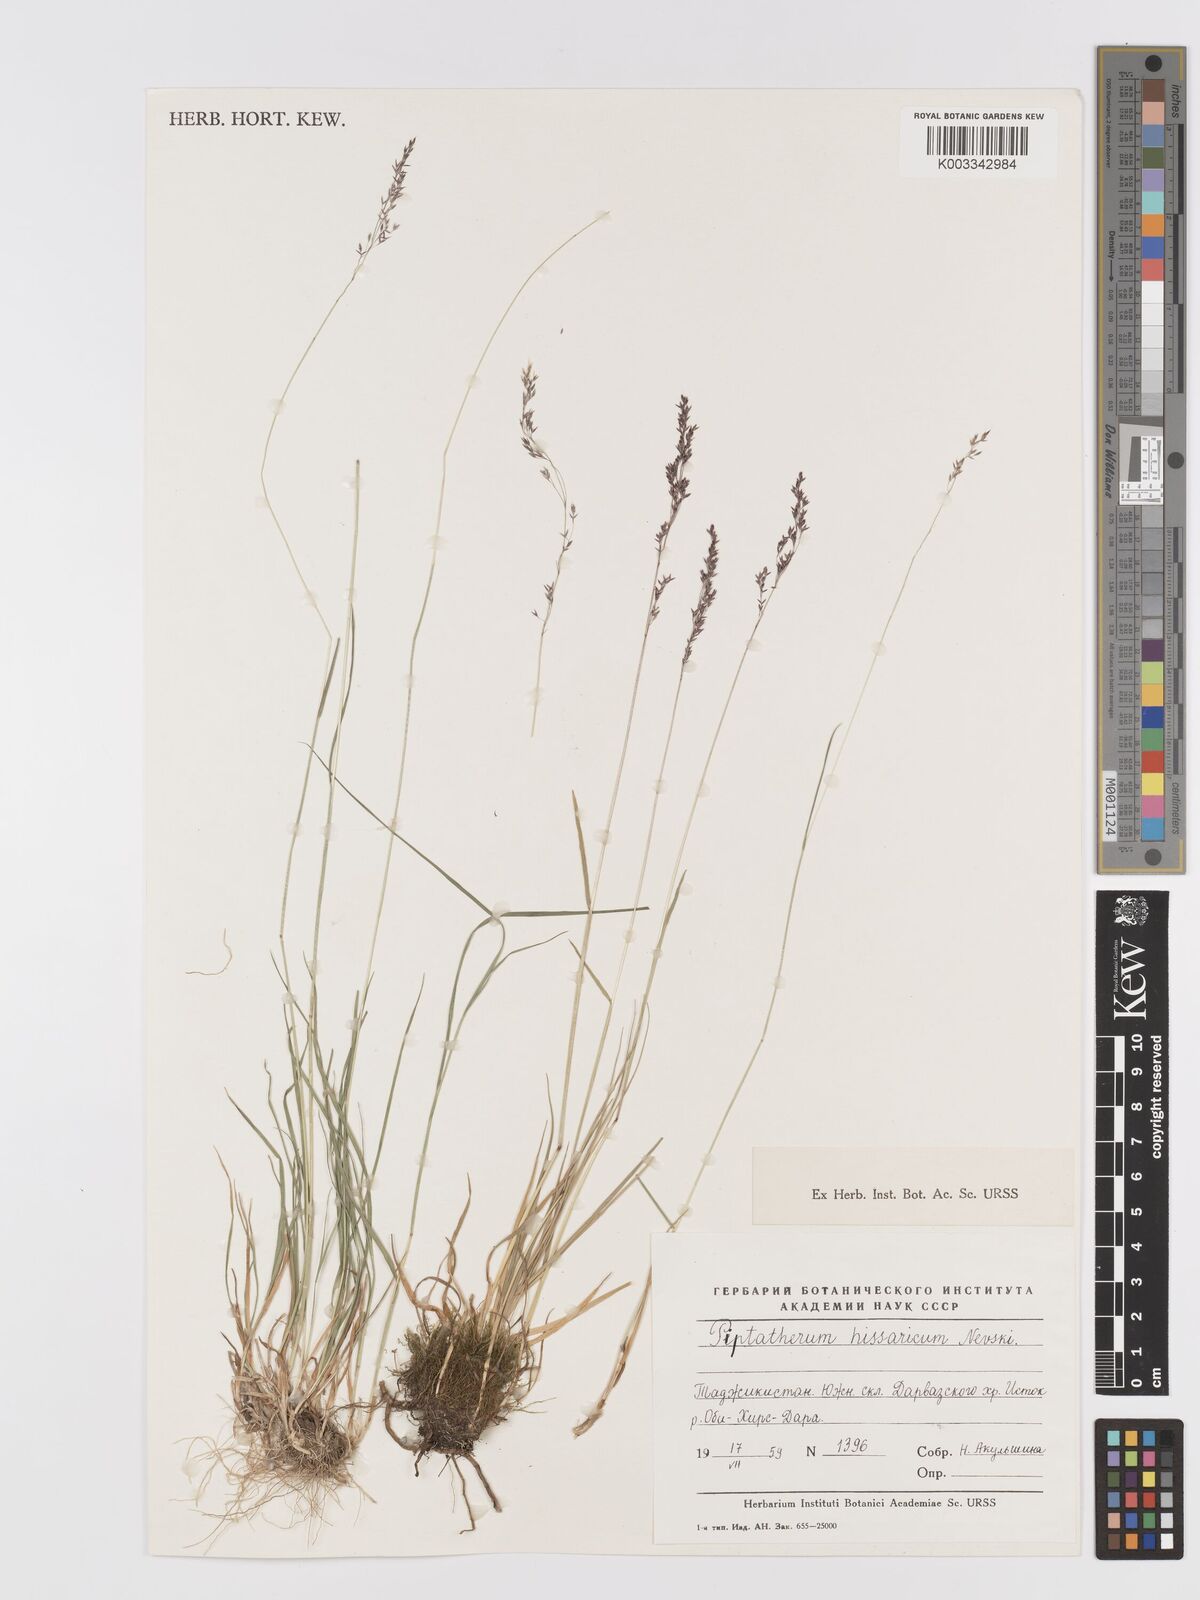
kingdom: Plantae
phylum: Tracheophyta
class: Liliopsida
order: Poales
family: Poaceae
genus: Agrostis
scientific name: Agrostis nevskii
